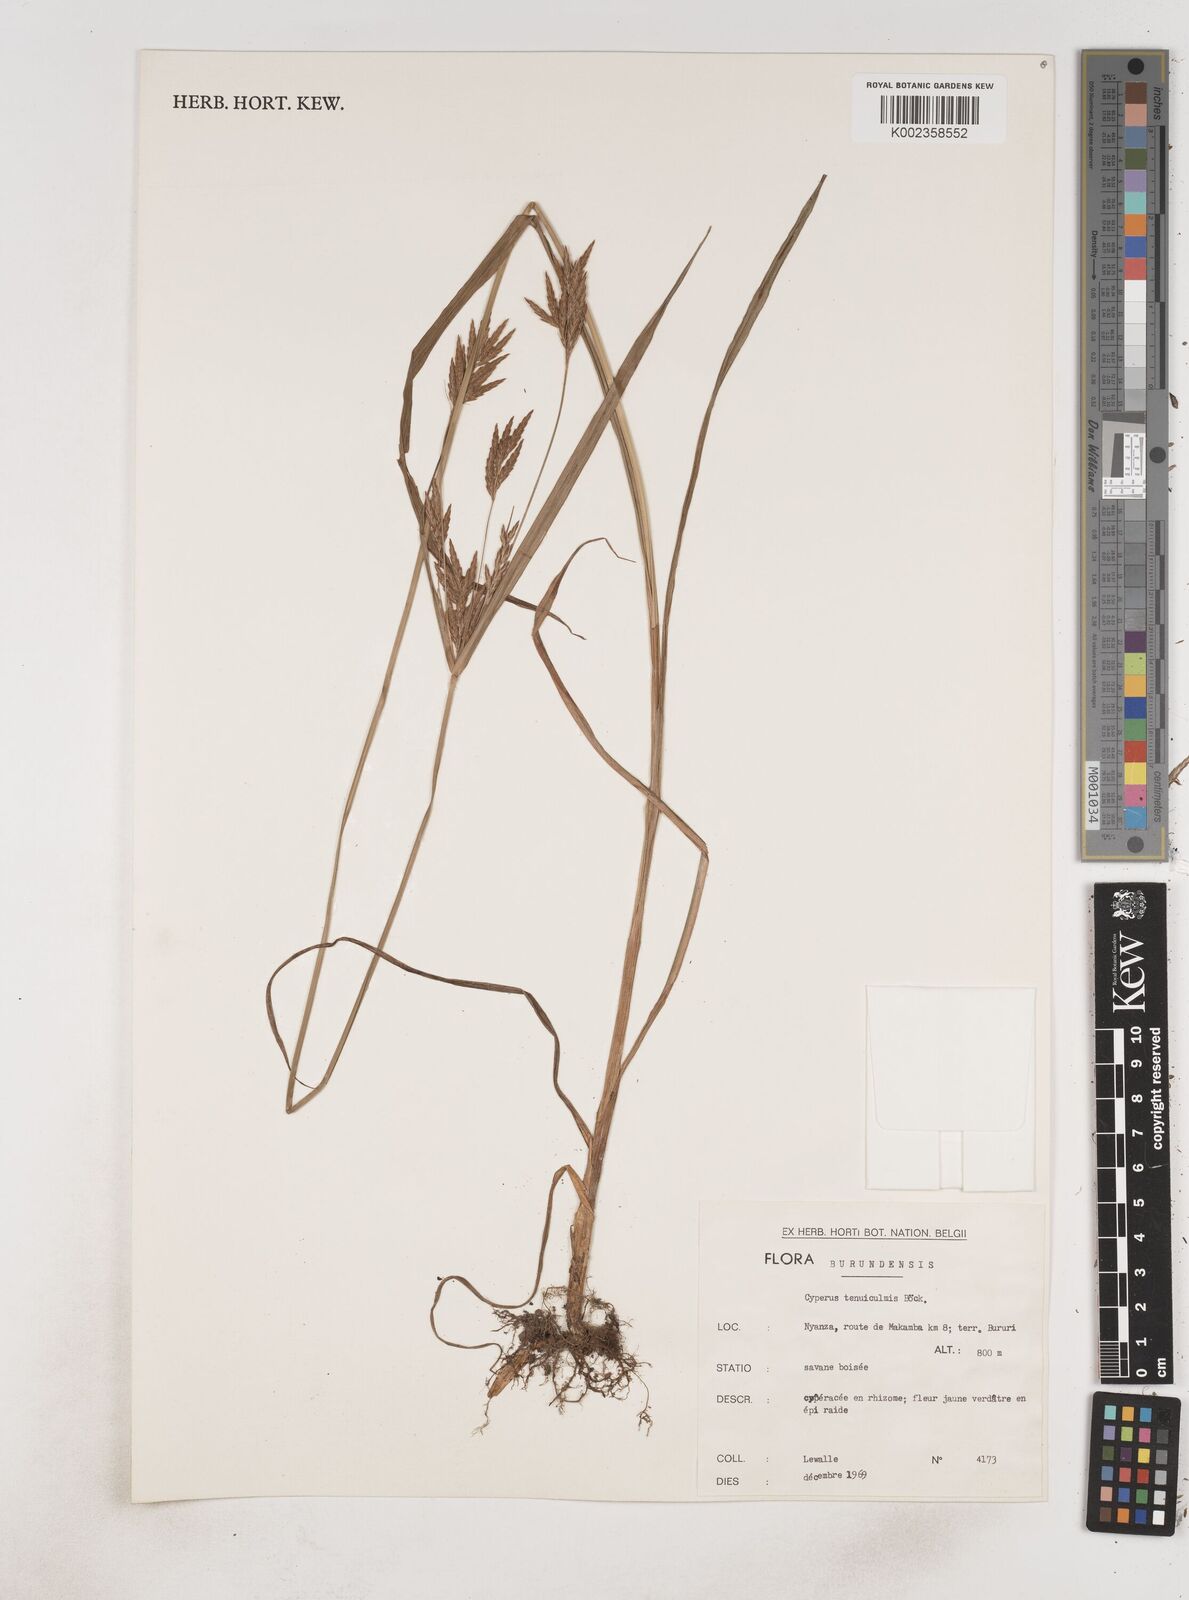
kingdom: Plantae
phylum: Tracheophyta
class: Liliopsida
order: Poales
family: Cyperaceae
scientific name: Cyperaceae
